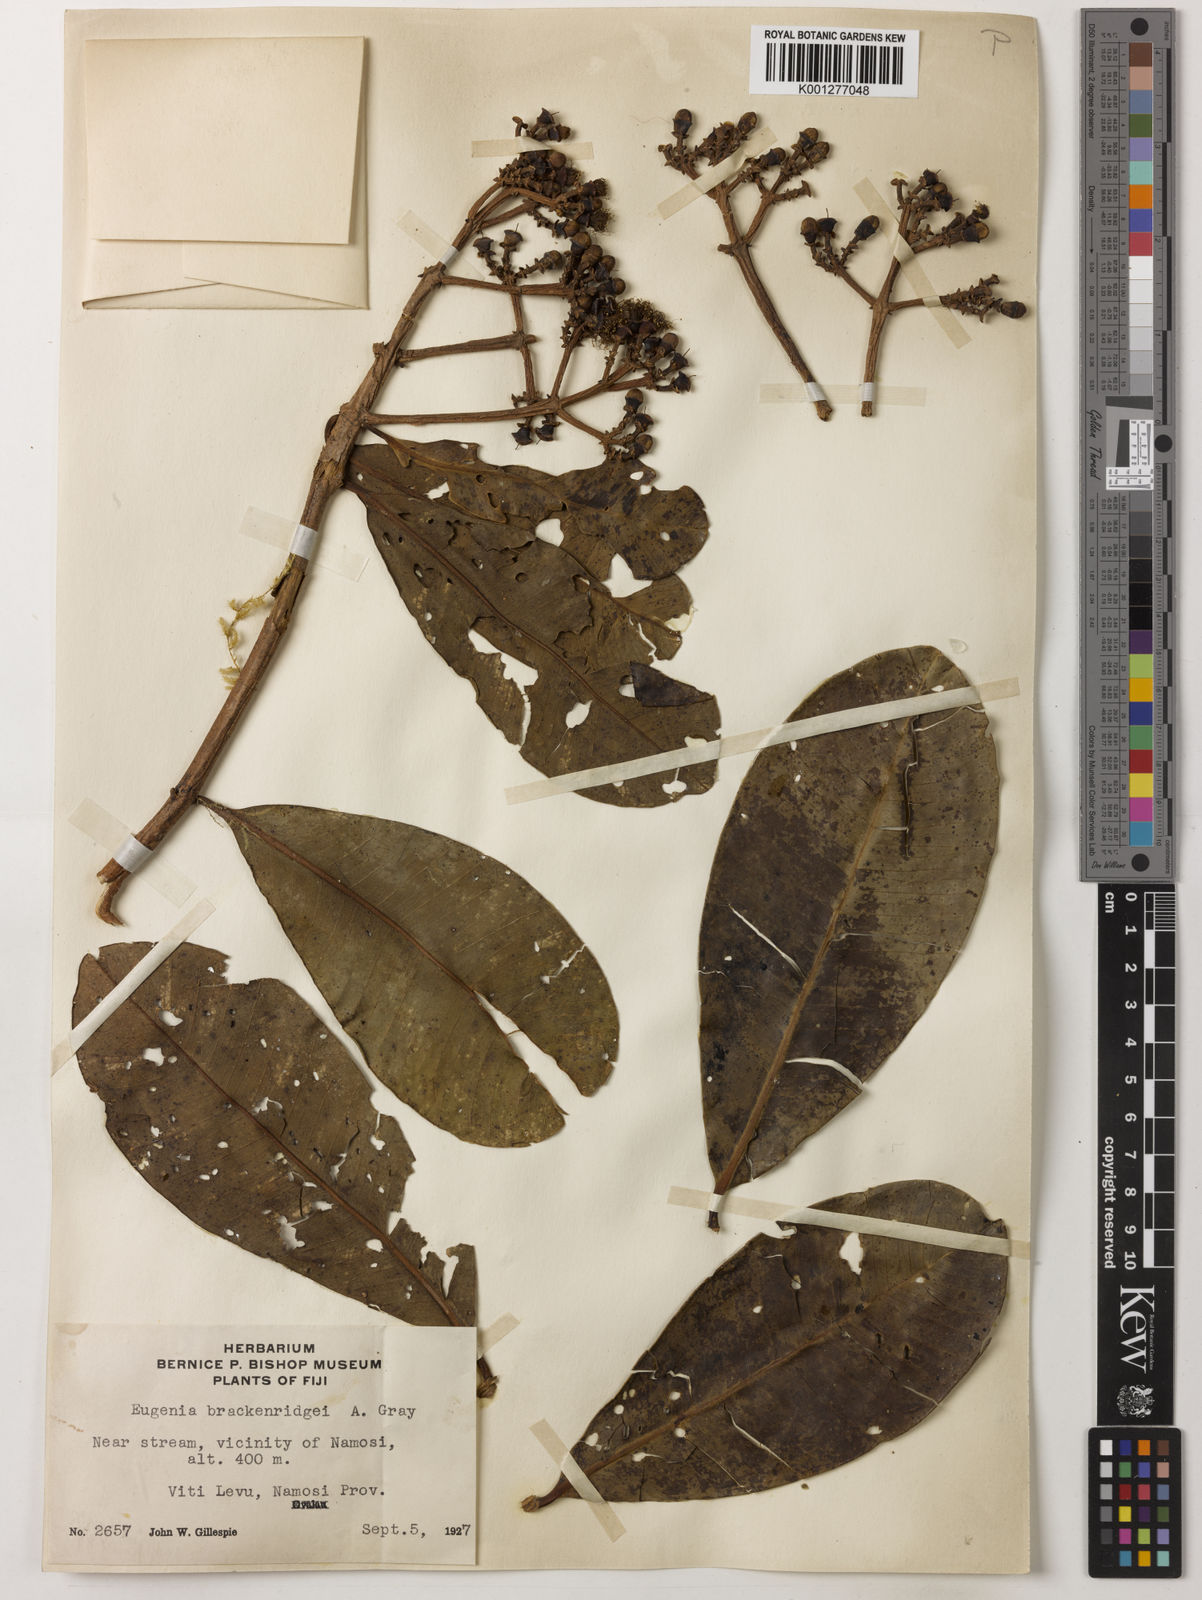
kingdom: Plantae
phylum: Tracheophyta
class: Magnoliopsida
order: Myrtales
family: Myrtaceae
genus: Syzygium
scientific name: Syzygium
